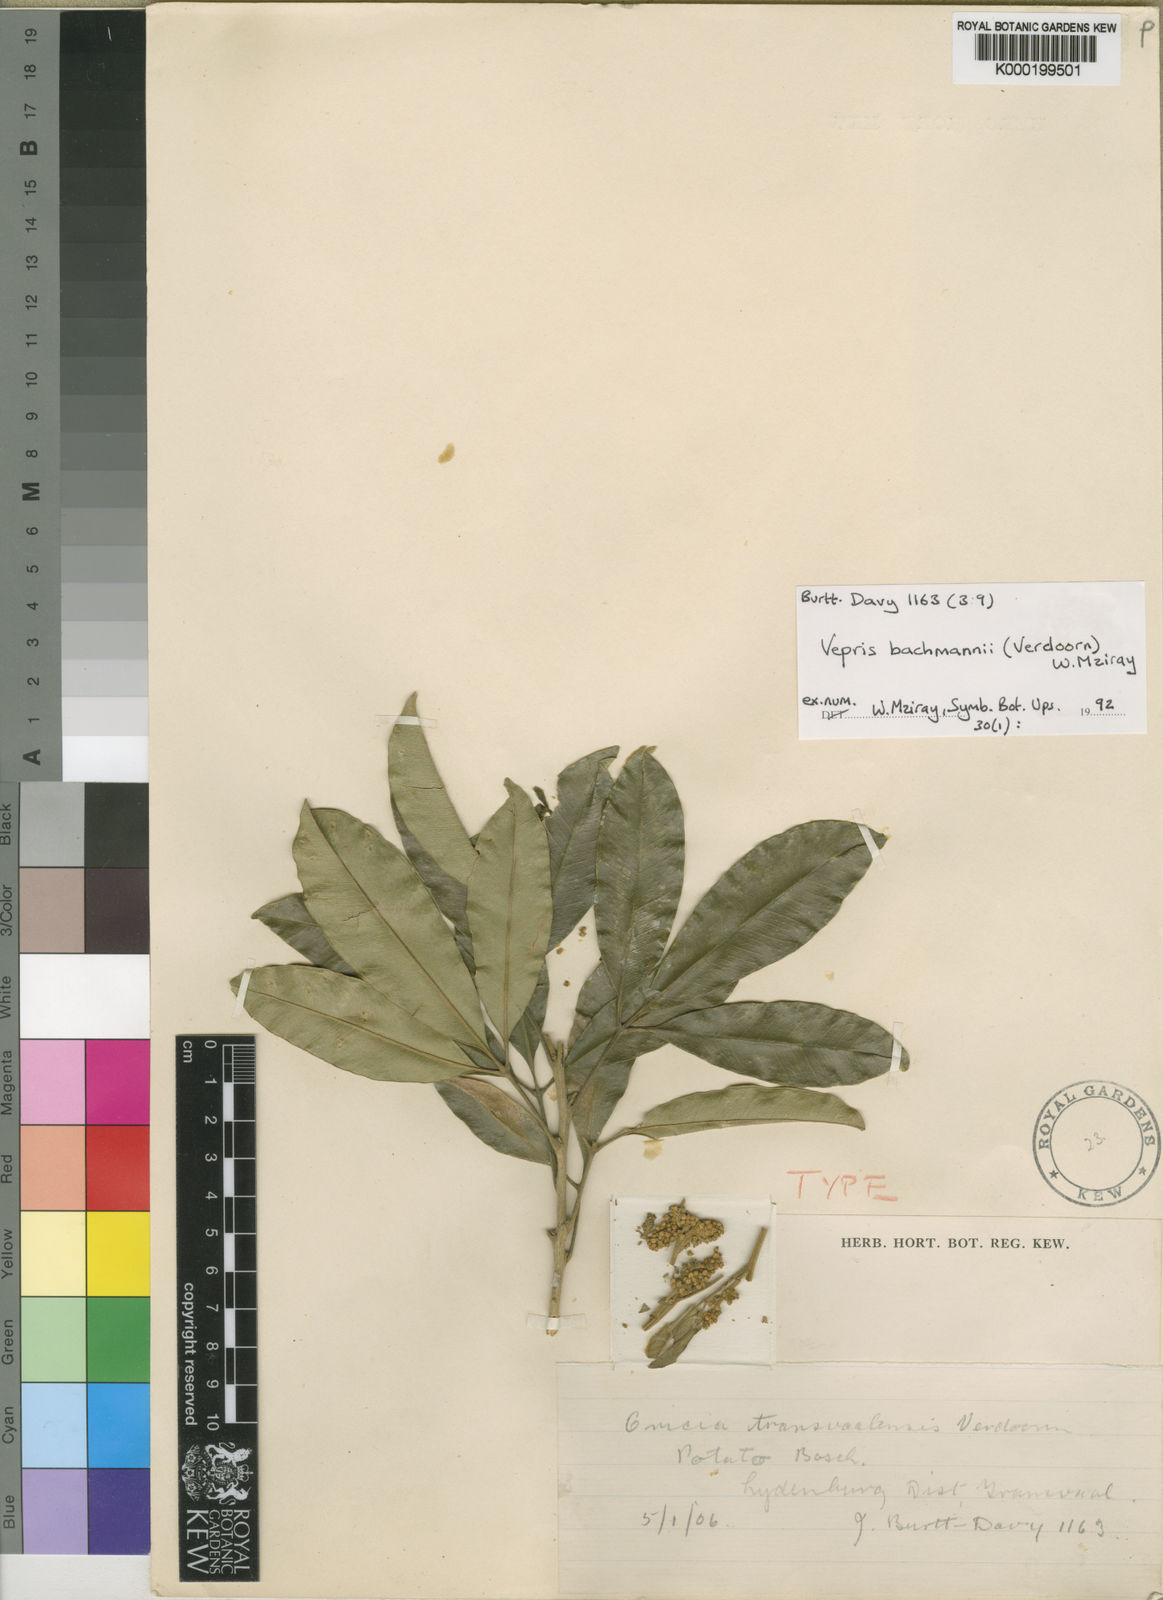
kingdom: Plantae
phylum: Tracheophyta
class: Magnoliopsida
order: Sapindales
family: Rutaceae
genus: Vepris
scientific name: Vepris bachmannii
